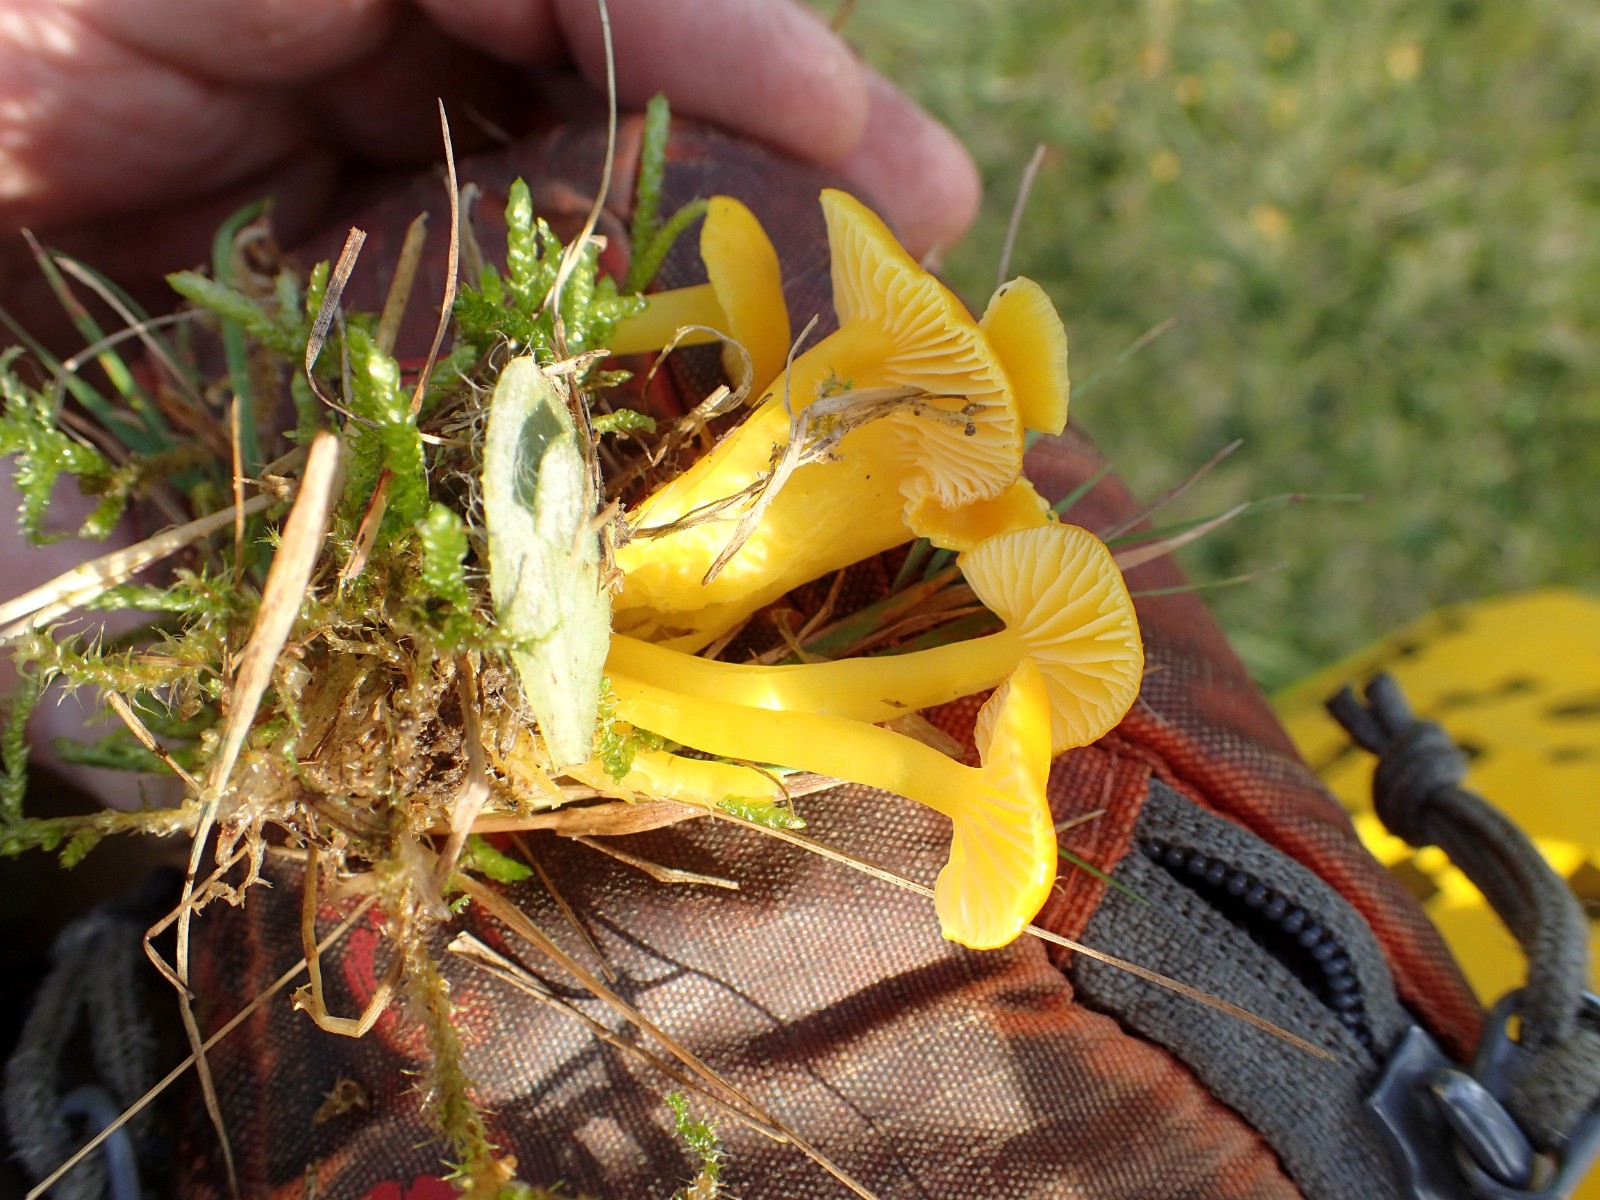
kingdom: Fungi
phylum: Basidiomycota
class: Agaricomycetes
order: Agaricales
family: Hygrophoraceae
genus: Hygrocybe
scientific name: Hygrocybe ceracea
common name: voksgul vokshat
